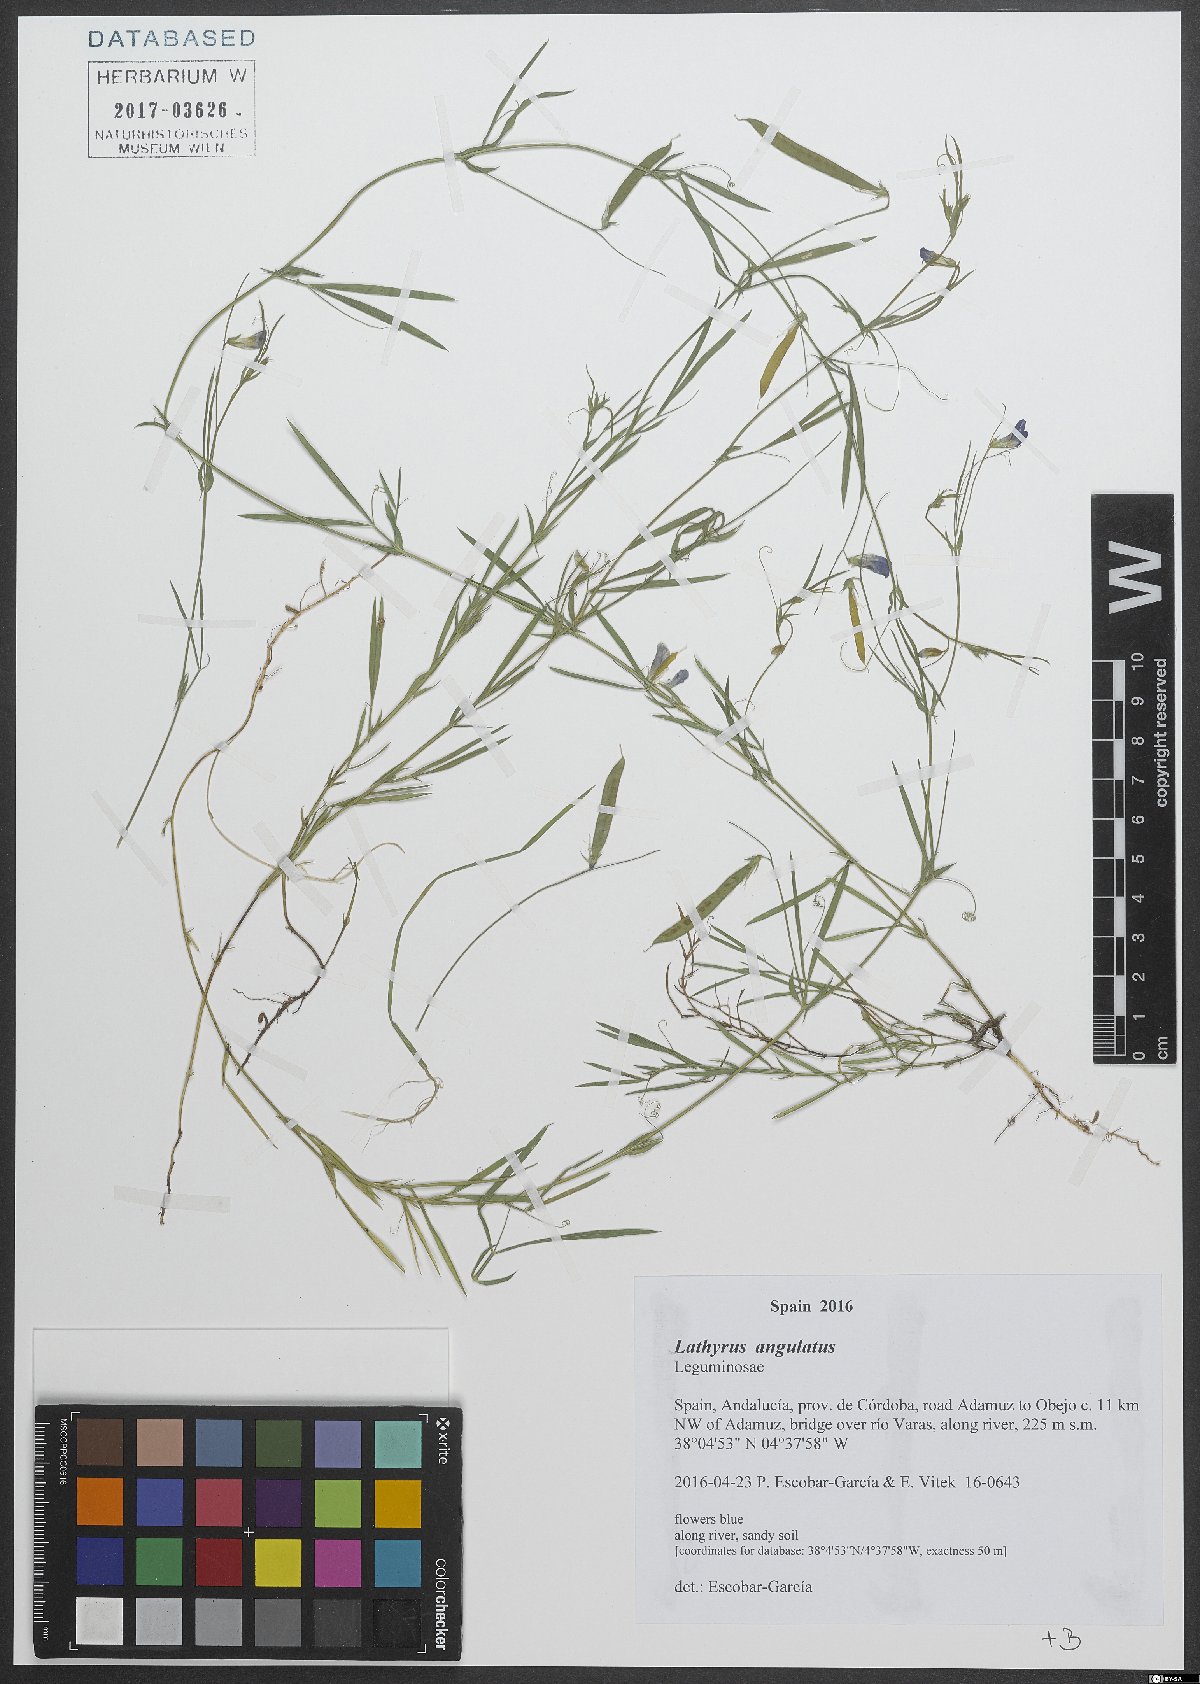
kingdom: Plantae
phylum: Tracheophyta
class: Magnoliopsida
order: Fabales
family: Fabaceae
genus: Lathyrus
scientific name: Lathyrus angulatus
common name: Angular pea
